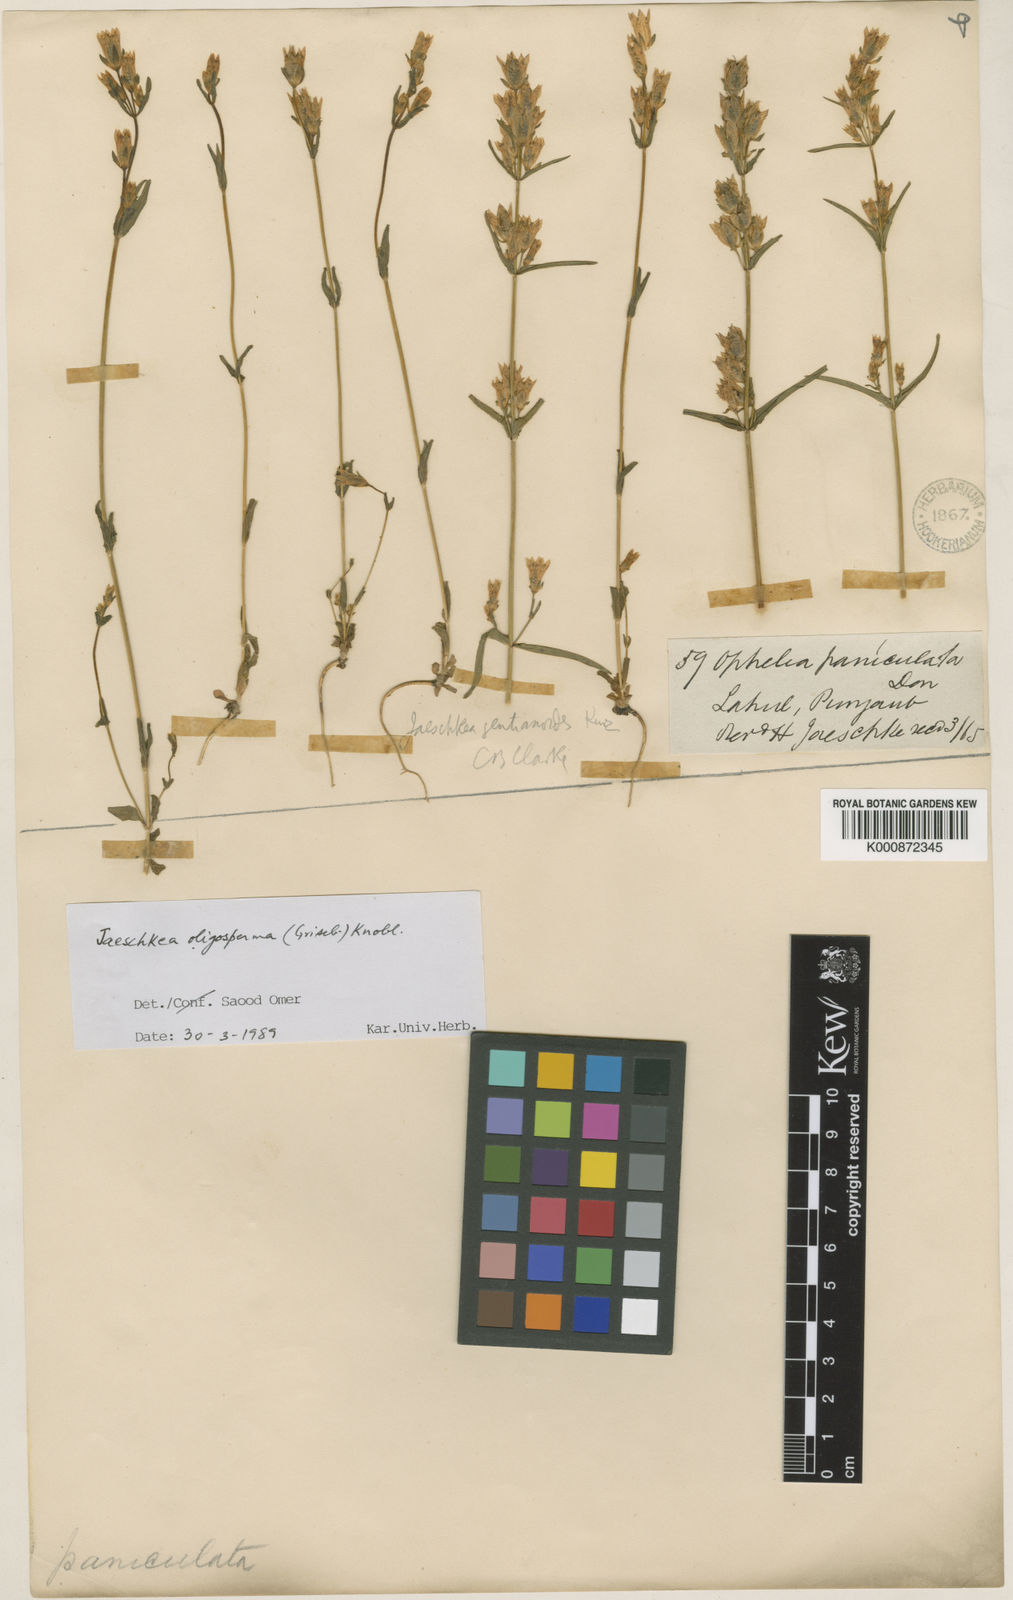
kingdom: Plantae
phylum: Tracheophyta
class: Magnoliopsida
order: Gentianales
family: Gentianaceae
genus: Jaeschkea
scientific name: Jaeschkea
